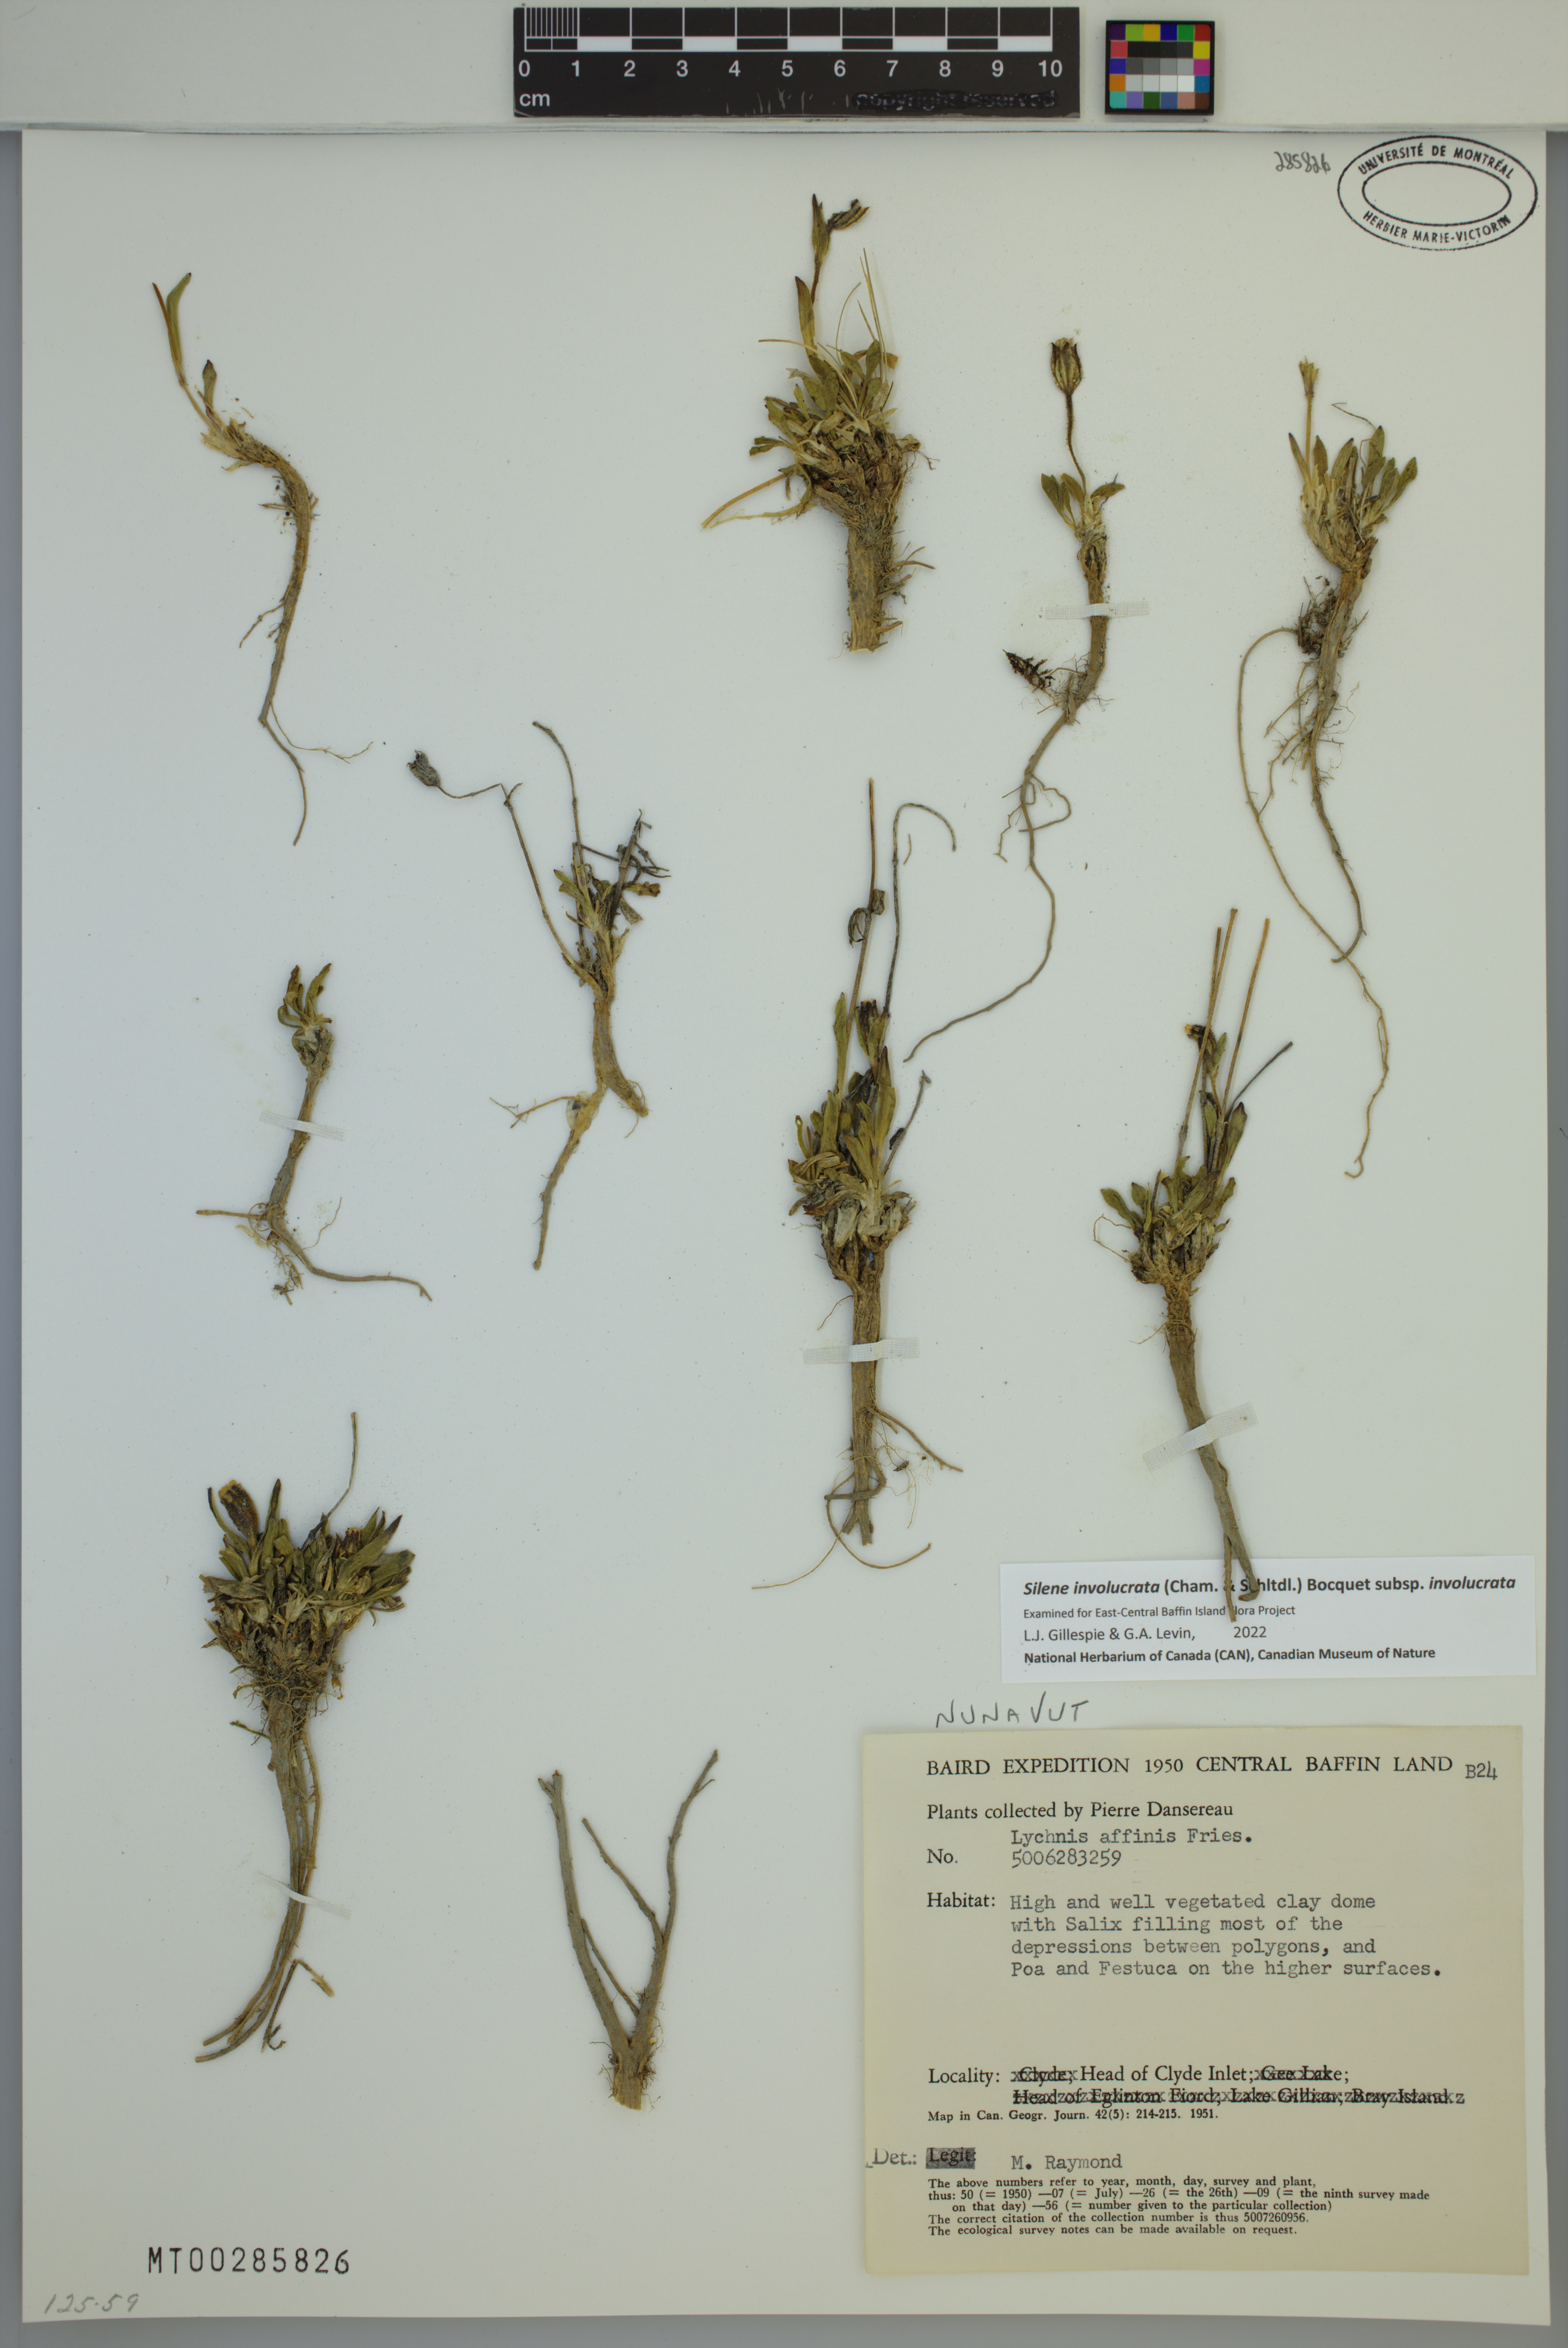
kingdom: Plantae
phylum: Tracheophyta
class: Magnoliopsida
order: Caryophyllales
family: Caryophyllaceae
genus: Silene
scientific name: Silene involucrata
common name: Greater arctic campion
